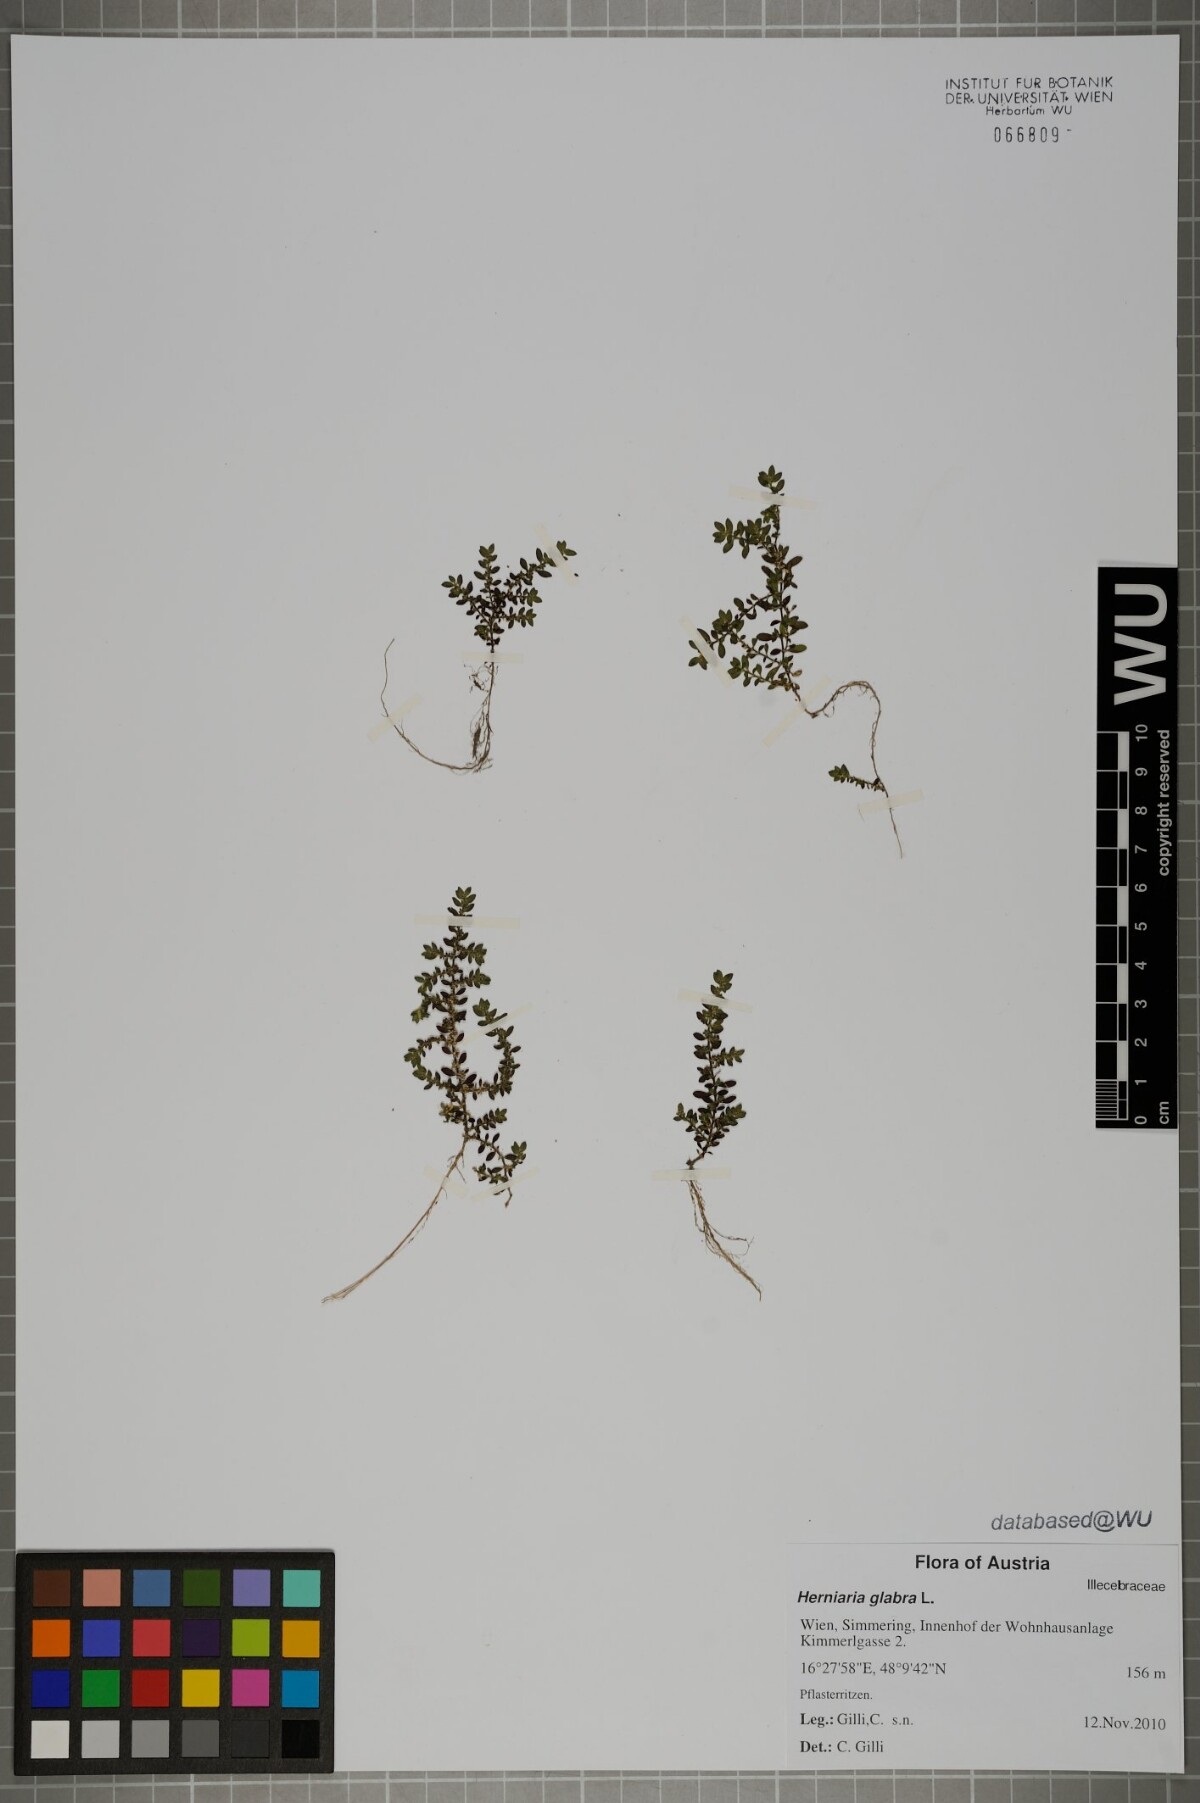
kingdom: Plantae
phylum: Tracheophyta
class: Magnoliopsida
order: Caryophyllales
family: Caryophyllaceae
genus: Herniaria
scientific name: Herniaria glabra
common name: Smooth rupturewort
